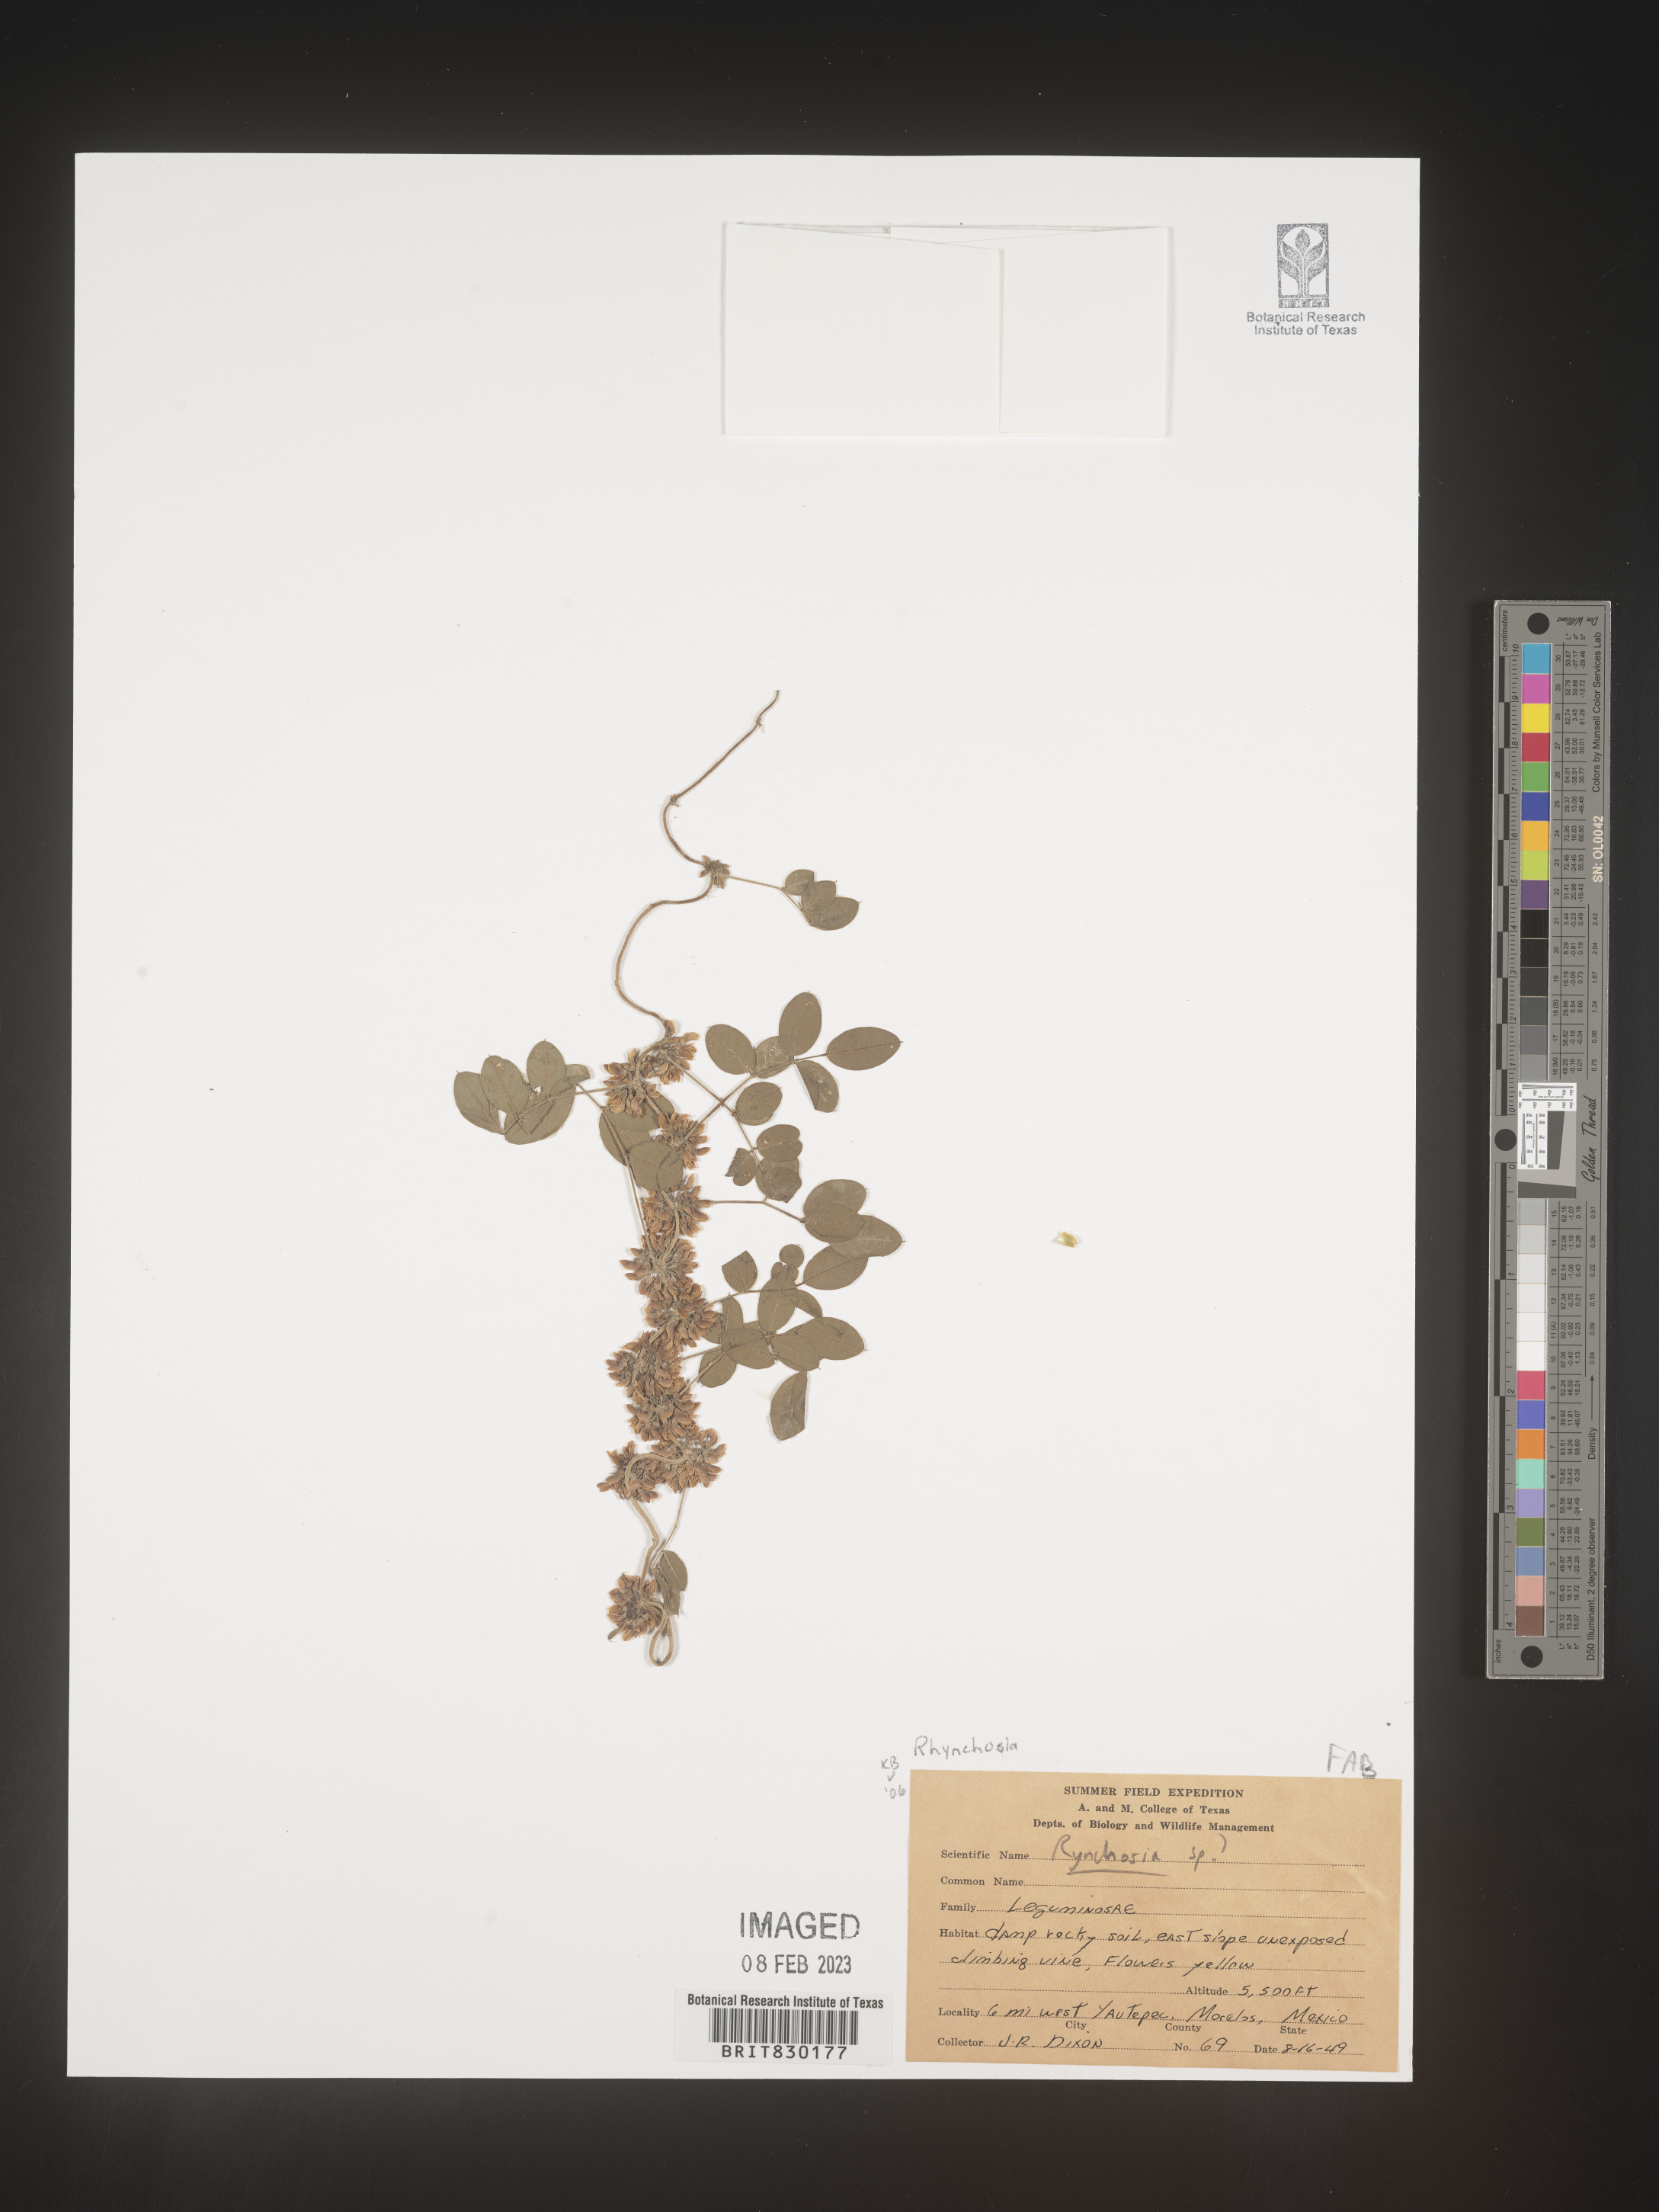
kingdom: Plantae
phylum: Tracheophyta
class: Magnoliopsida
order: Fabales
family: Fabaceae
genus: Rhynchosia
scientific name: Rhynchosia
